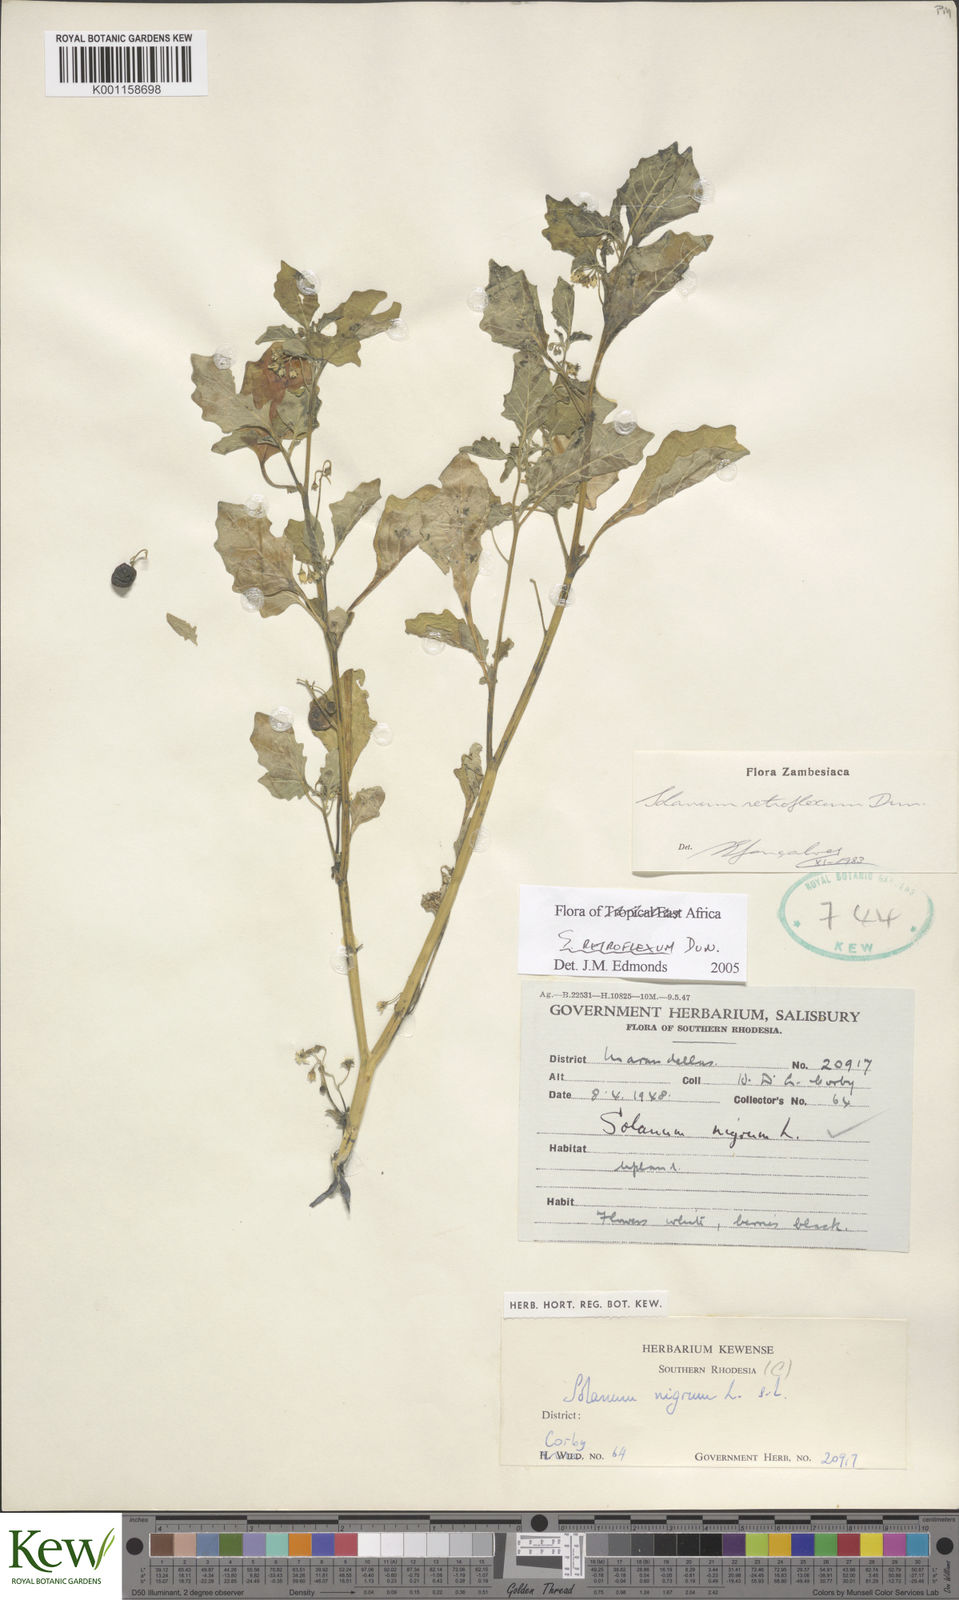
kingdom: Plantae
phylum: Tracheophyta
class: Magnoliopsida
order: Solanales
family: Solanaceae
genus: Solanum
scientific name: Solanum retroflexum
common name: Wonderberry
